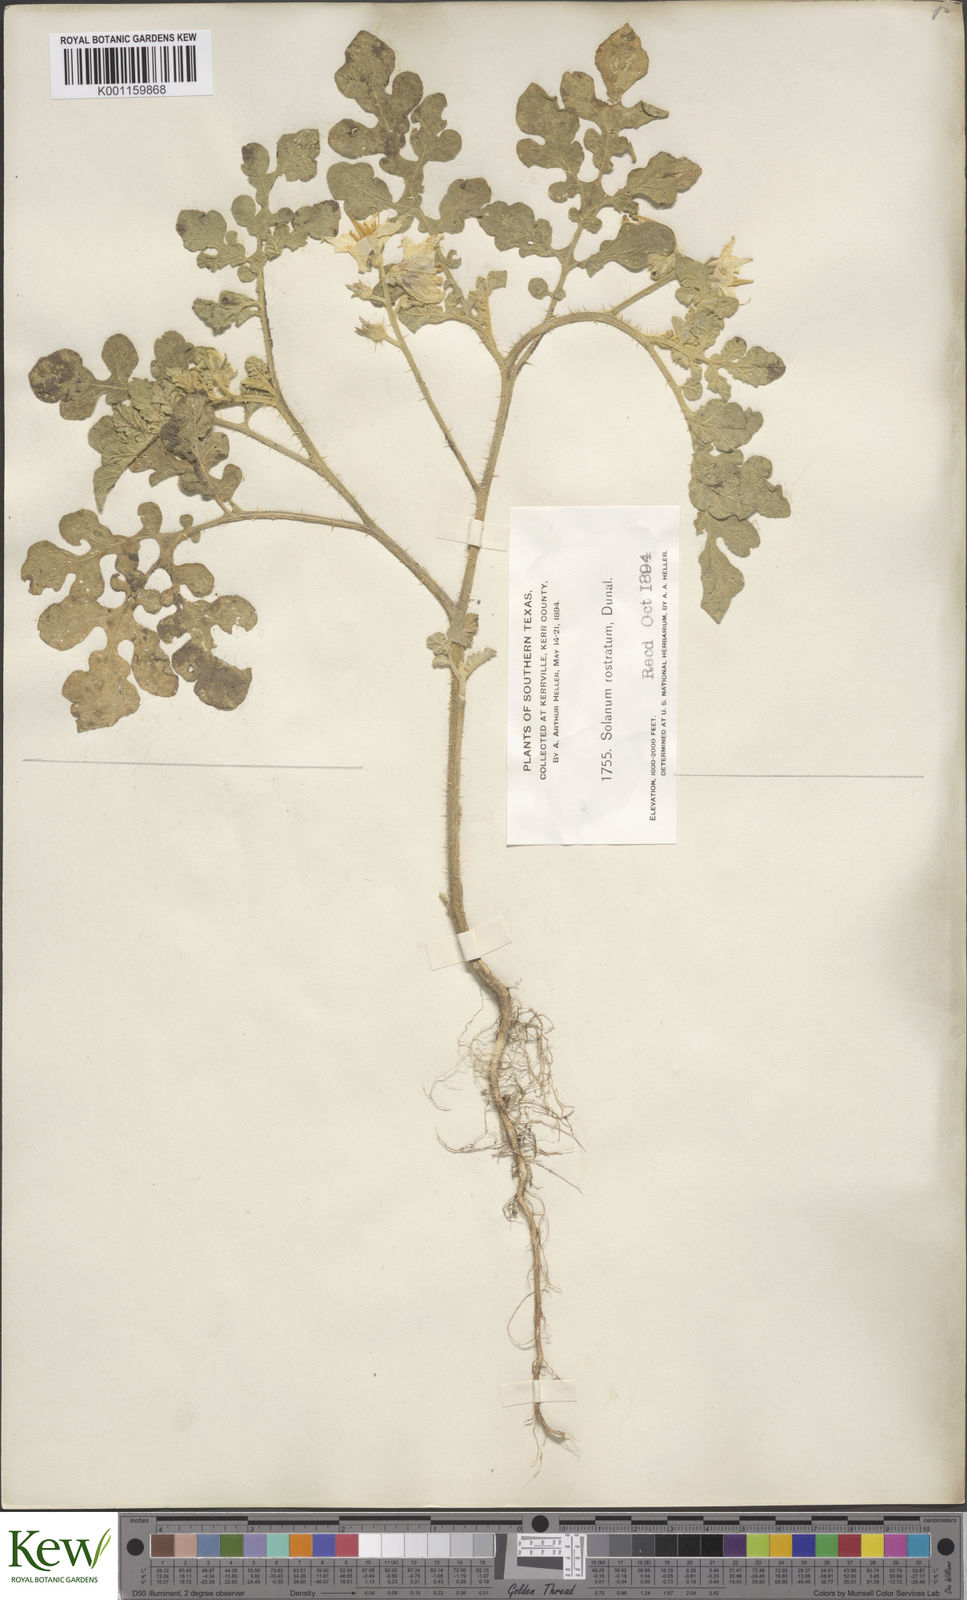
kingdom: Plantae
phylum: Tracheophyta
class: Magnoliopsida
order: Solanales
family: Solanaceae
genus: Solanum
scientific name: Solanum angustifolium
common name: Buffalobur nightshade
